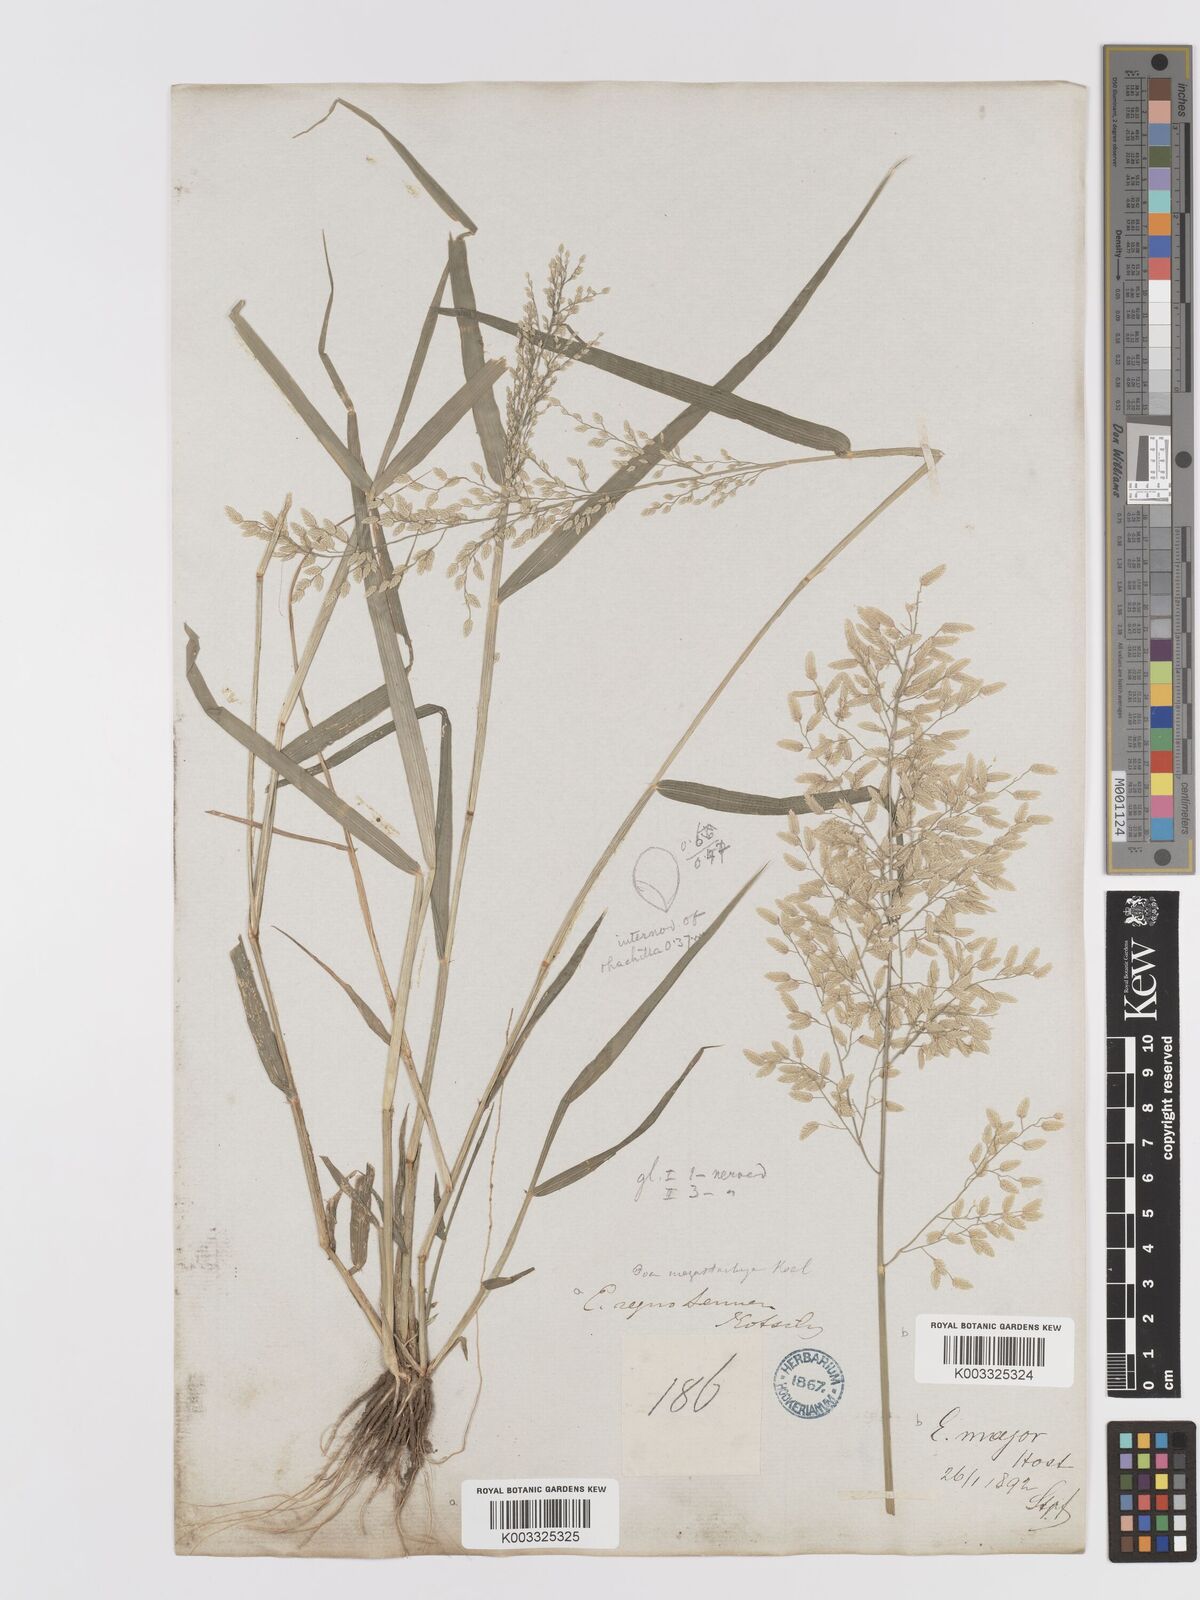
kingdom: Plantae
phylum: Tracheophyta
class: Liliopsida
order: Poales
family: Poaceae
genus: Eragrostis
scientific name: Eragrostis cilianensis
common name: Stinkgrass
